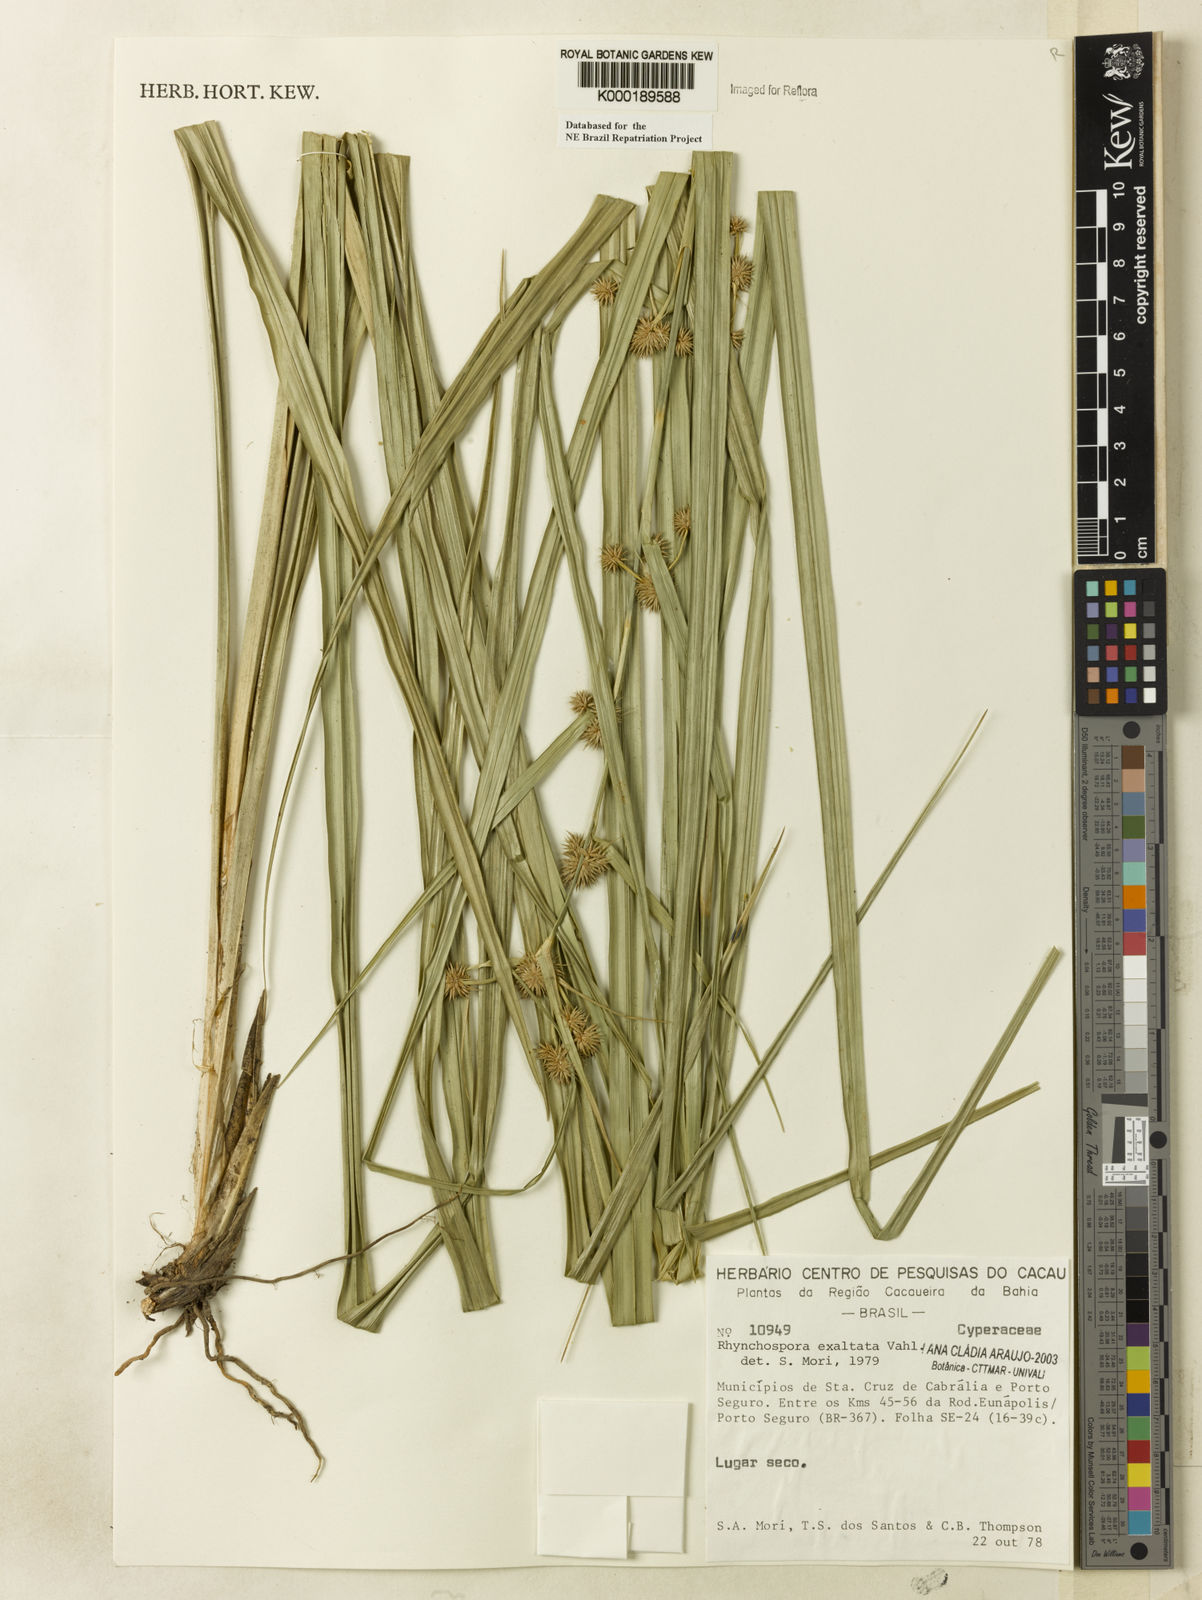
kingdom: Plantae
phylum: Tracheophyta
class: Liliopsida
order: Poales
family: Cyperaceae
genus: Rhynchospora
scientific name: Rhynchospora exaltata
